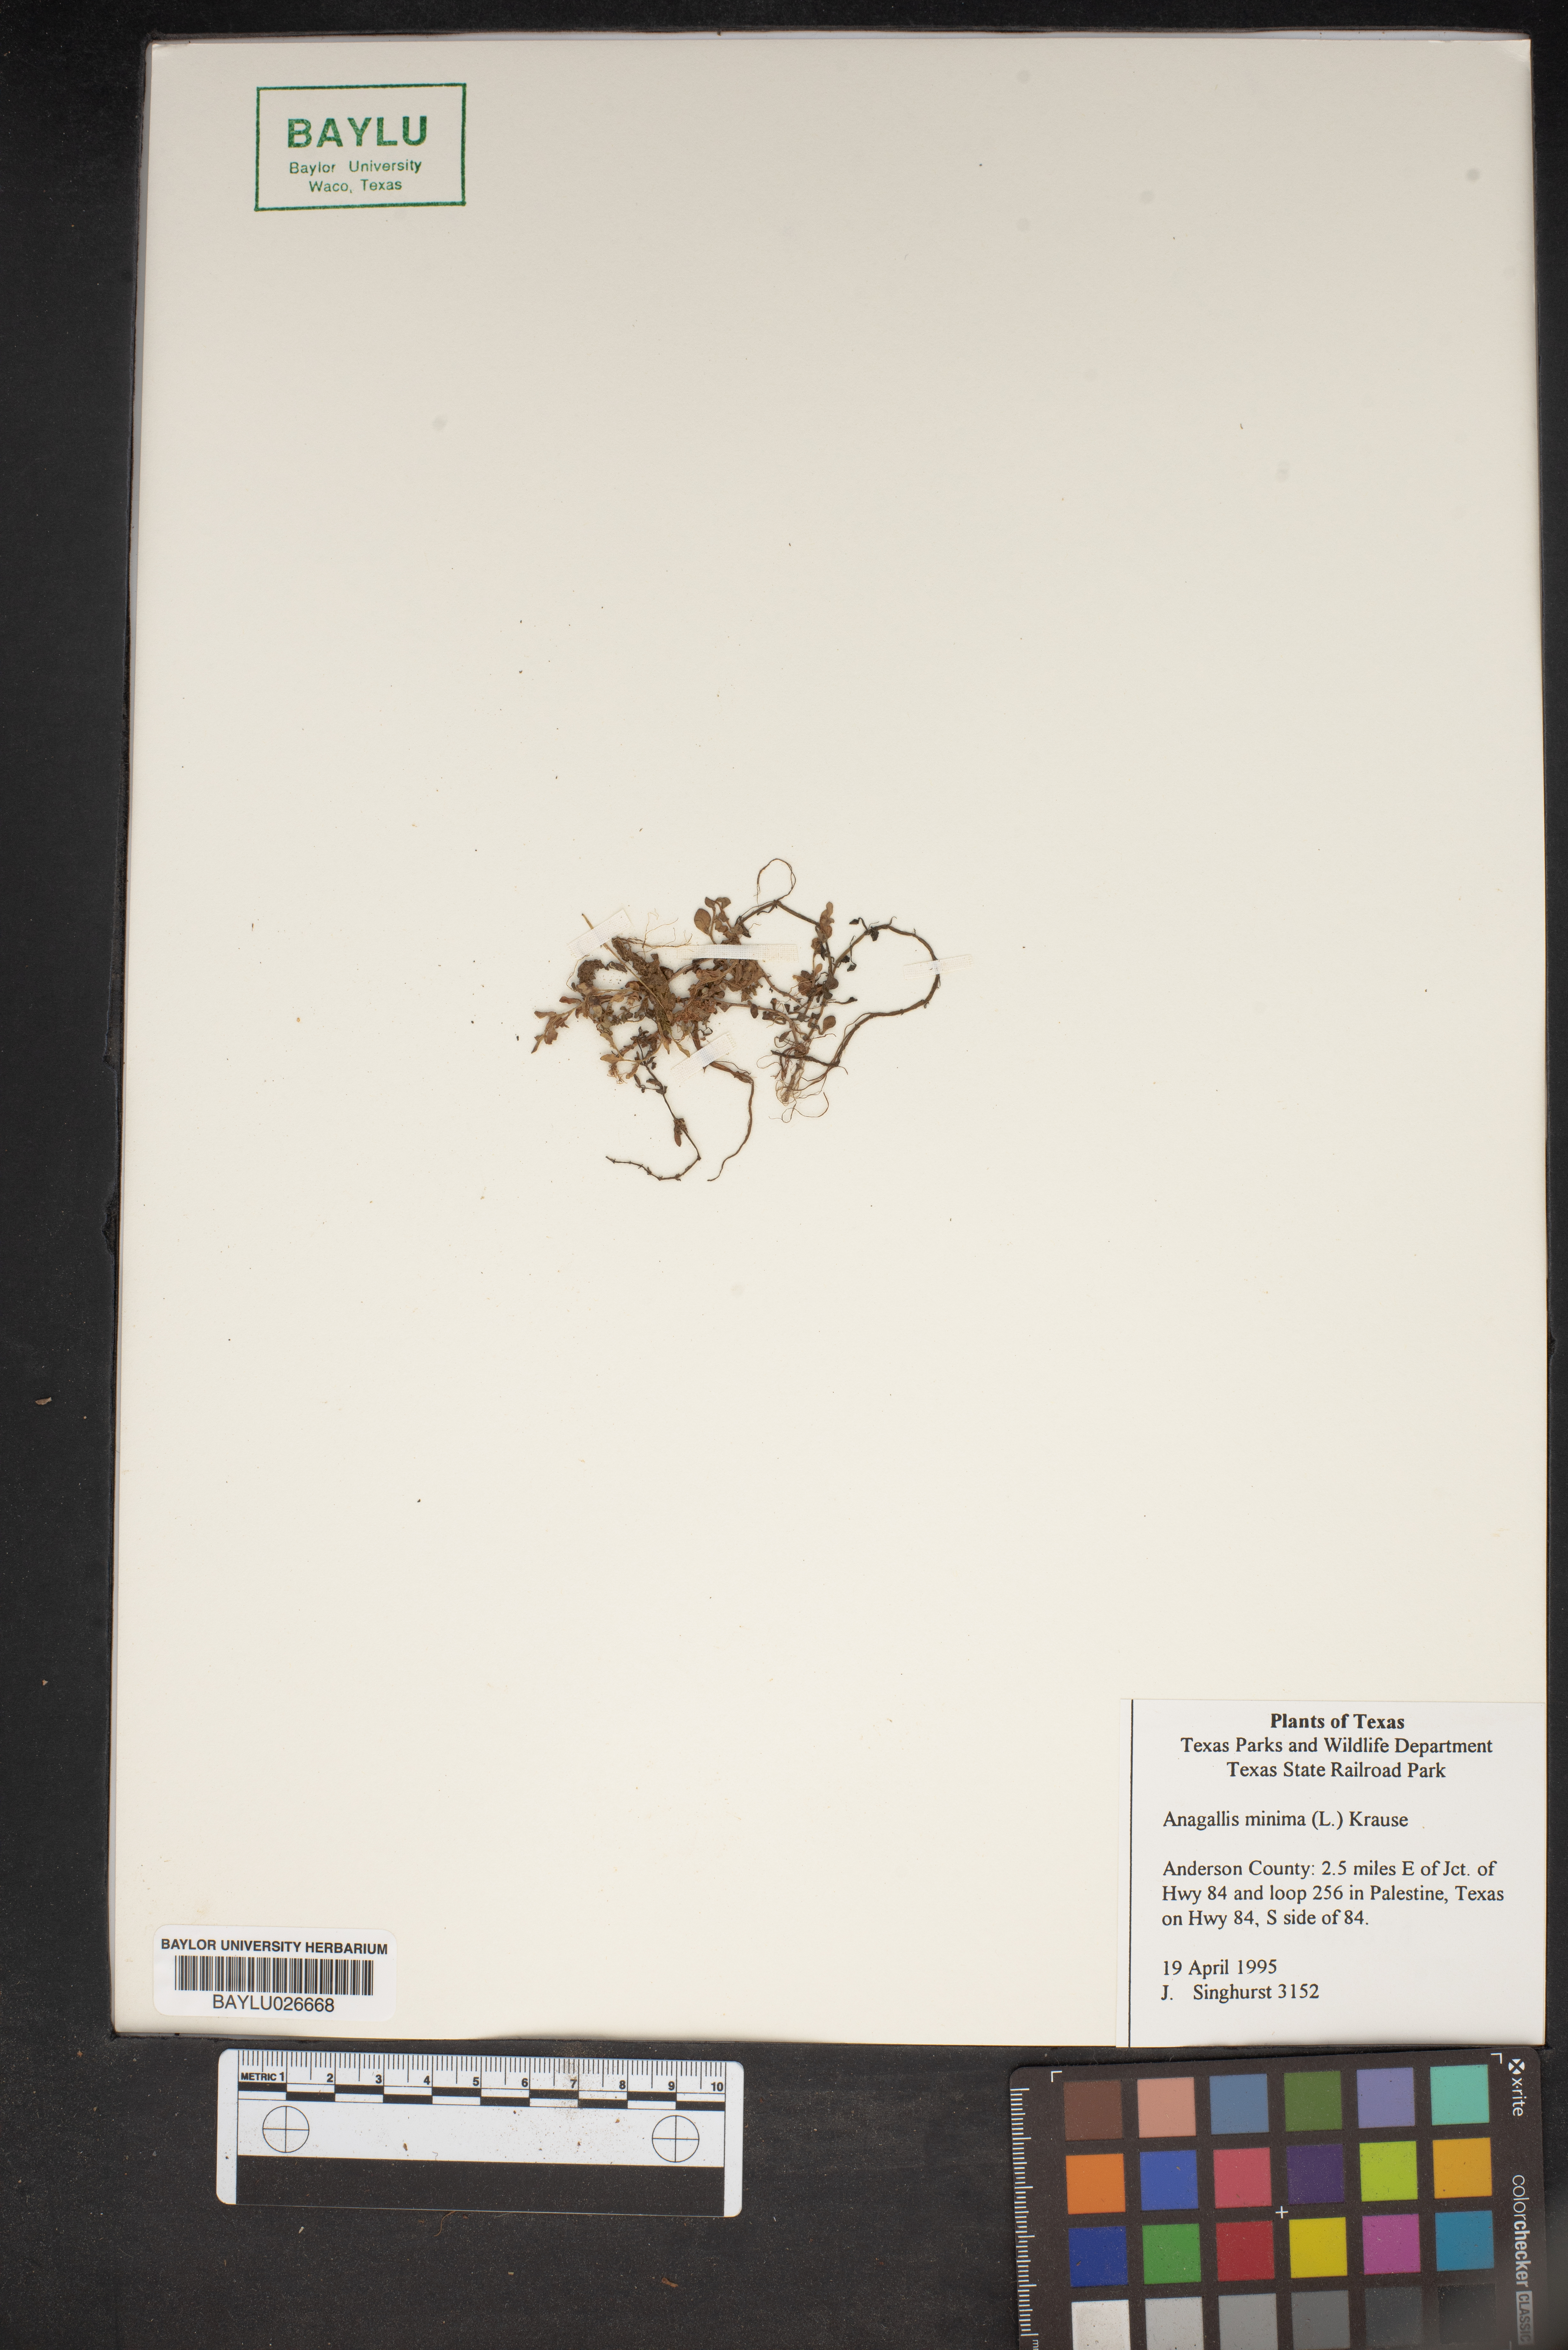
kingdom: Plantae
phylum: Tracheophyta
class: Magnoliopsida
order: Ericales
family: Primulaceae
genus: Lysimachia
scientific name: Lysimachia minima
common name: Chaffweed
